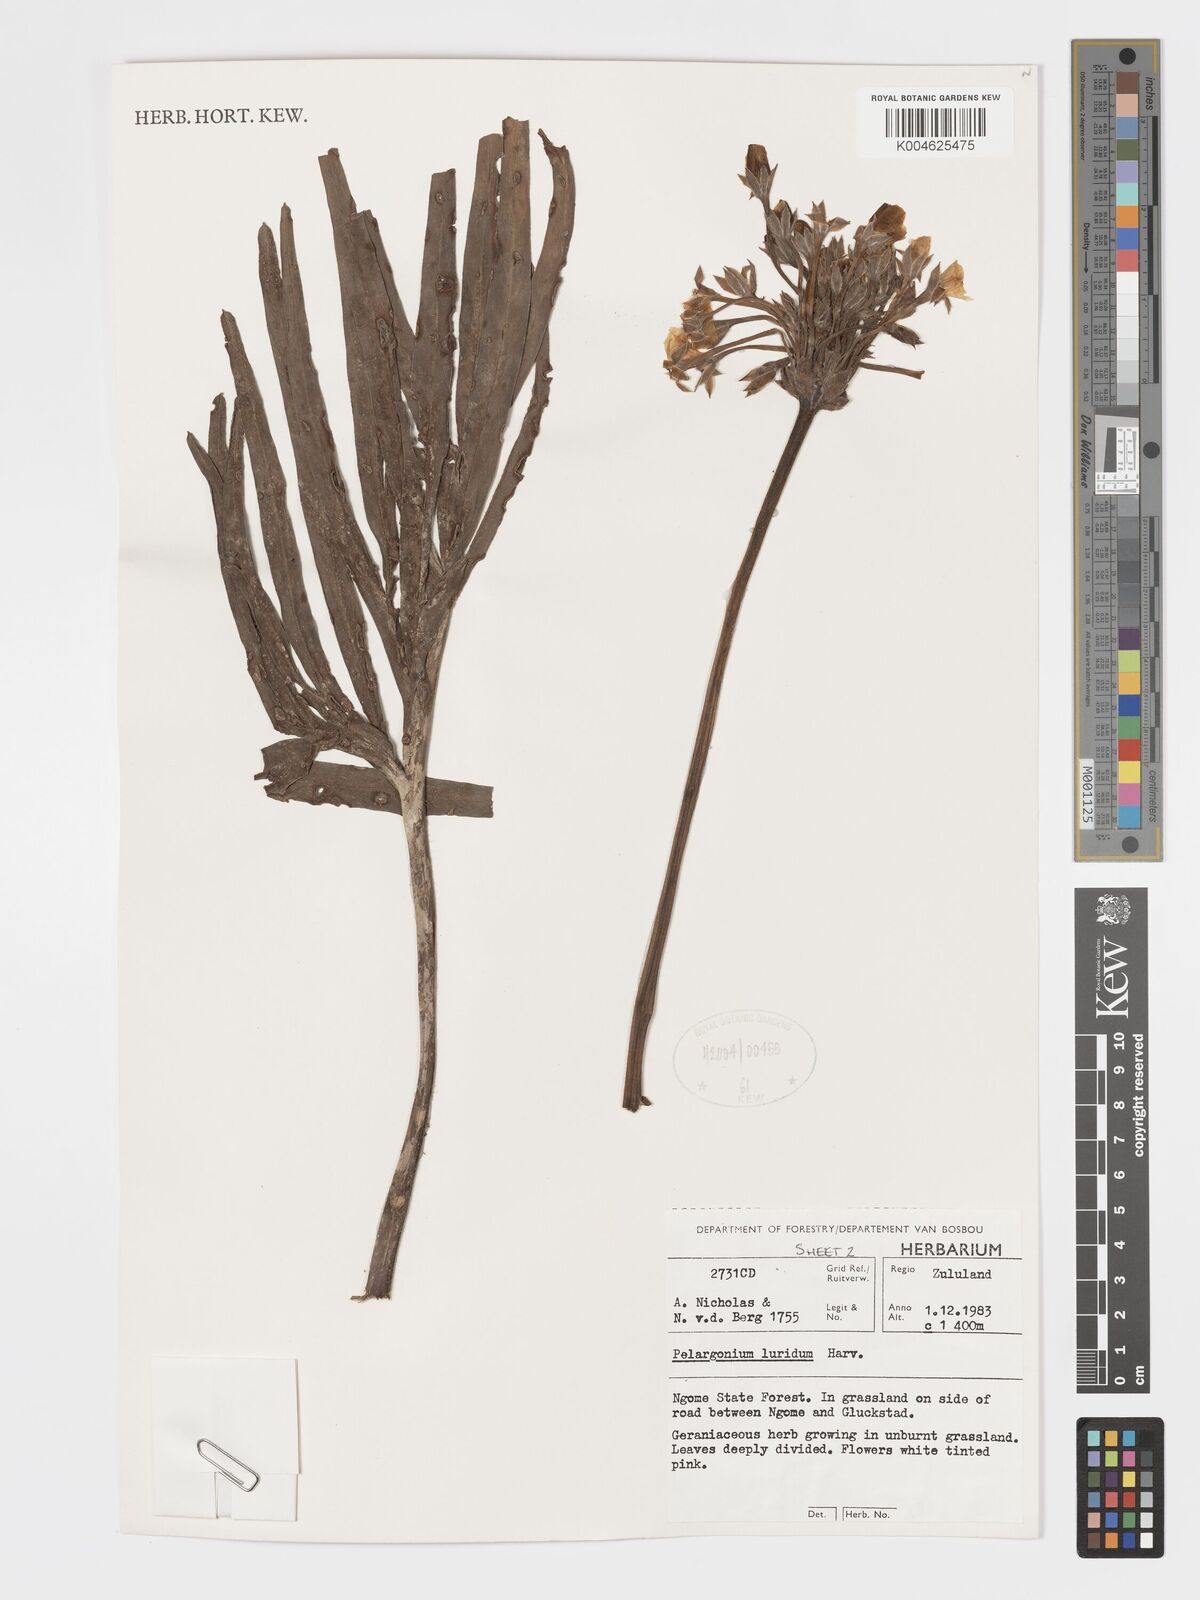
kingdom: Plantae
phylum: Tracheophyta
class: Magnoliopsida
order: Geraniales
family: Geraniaceae
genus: Pelargonium
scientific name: Pelargonium luridum
